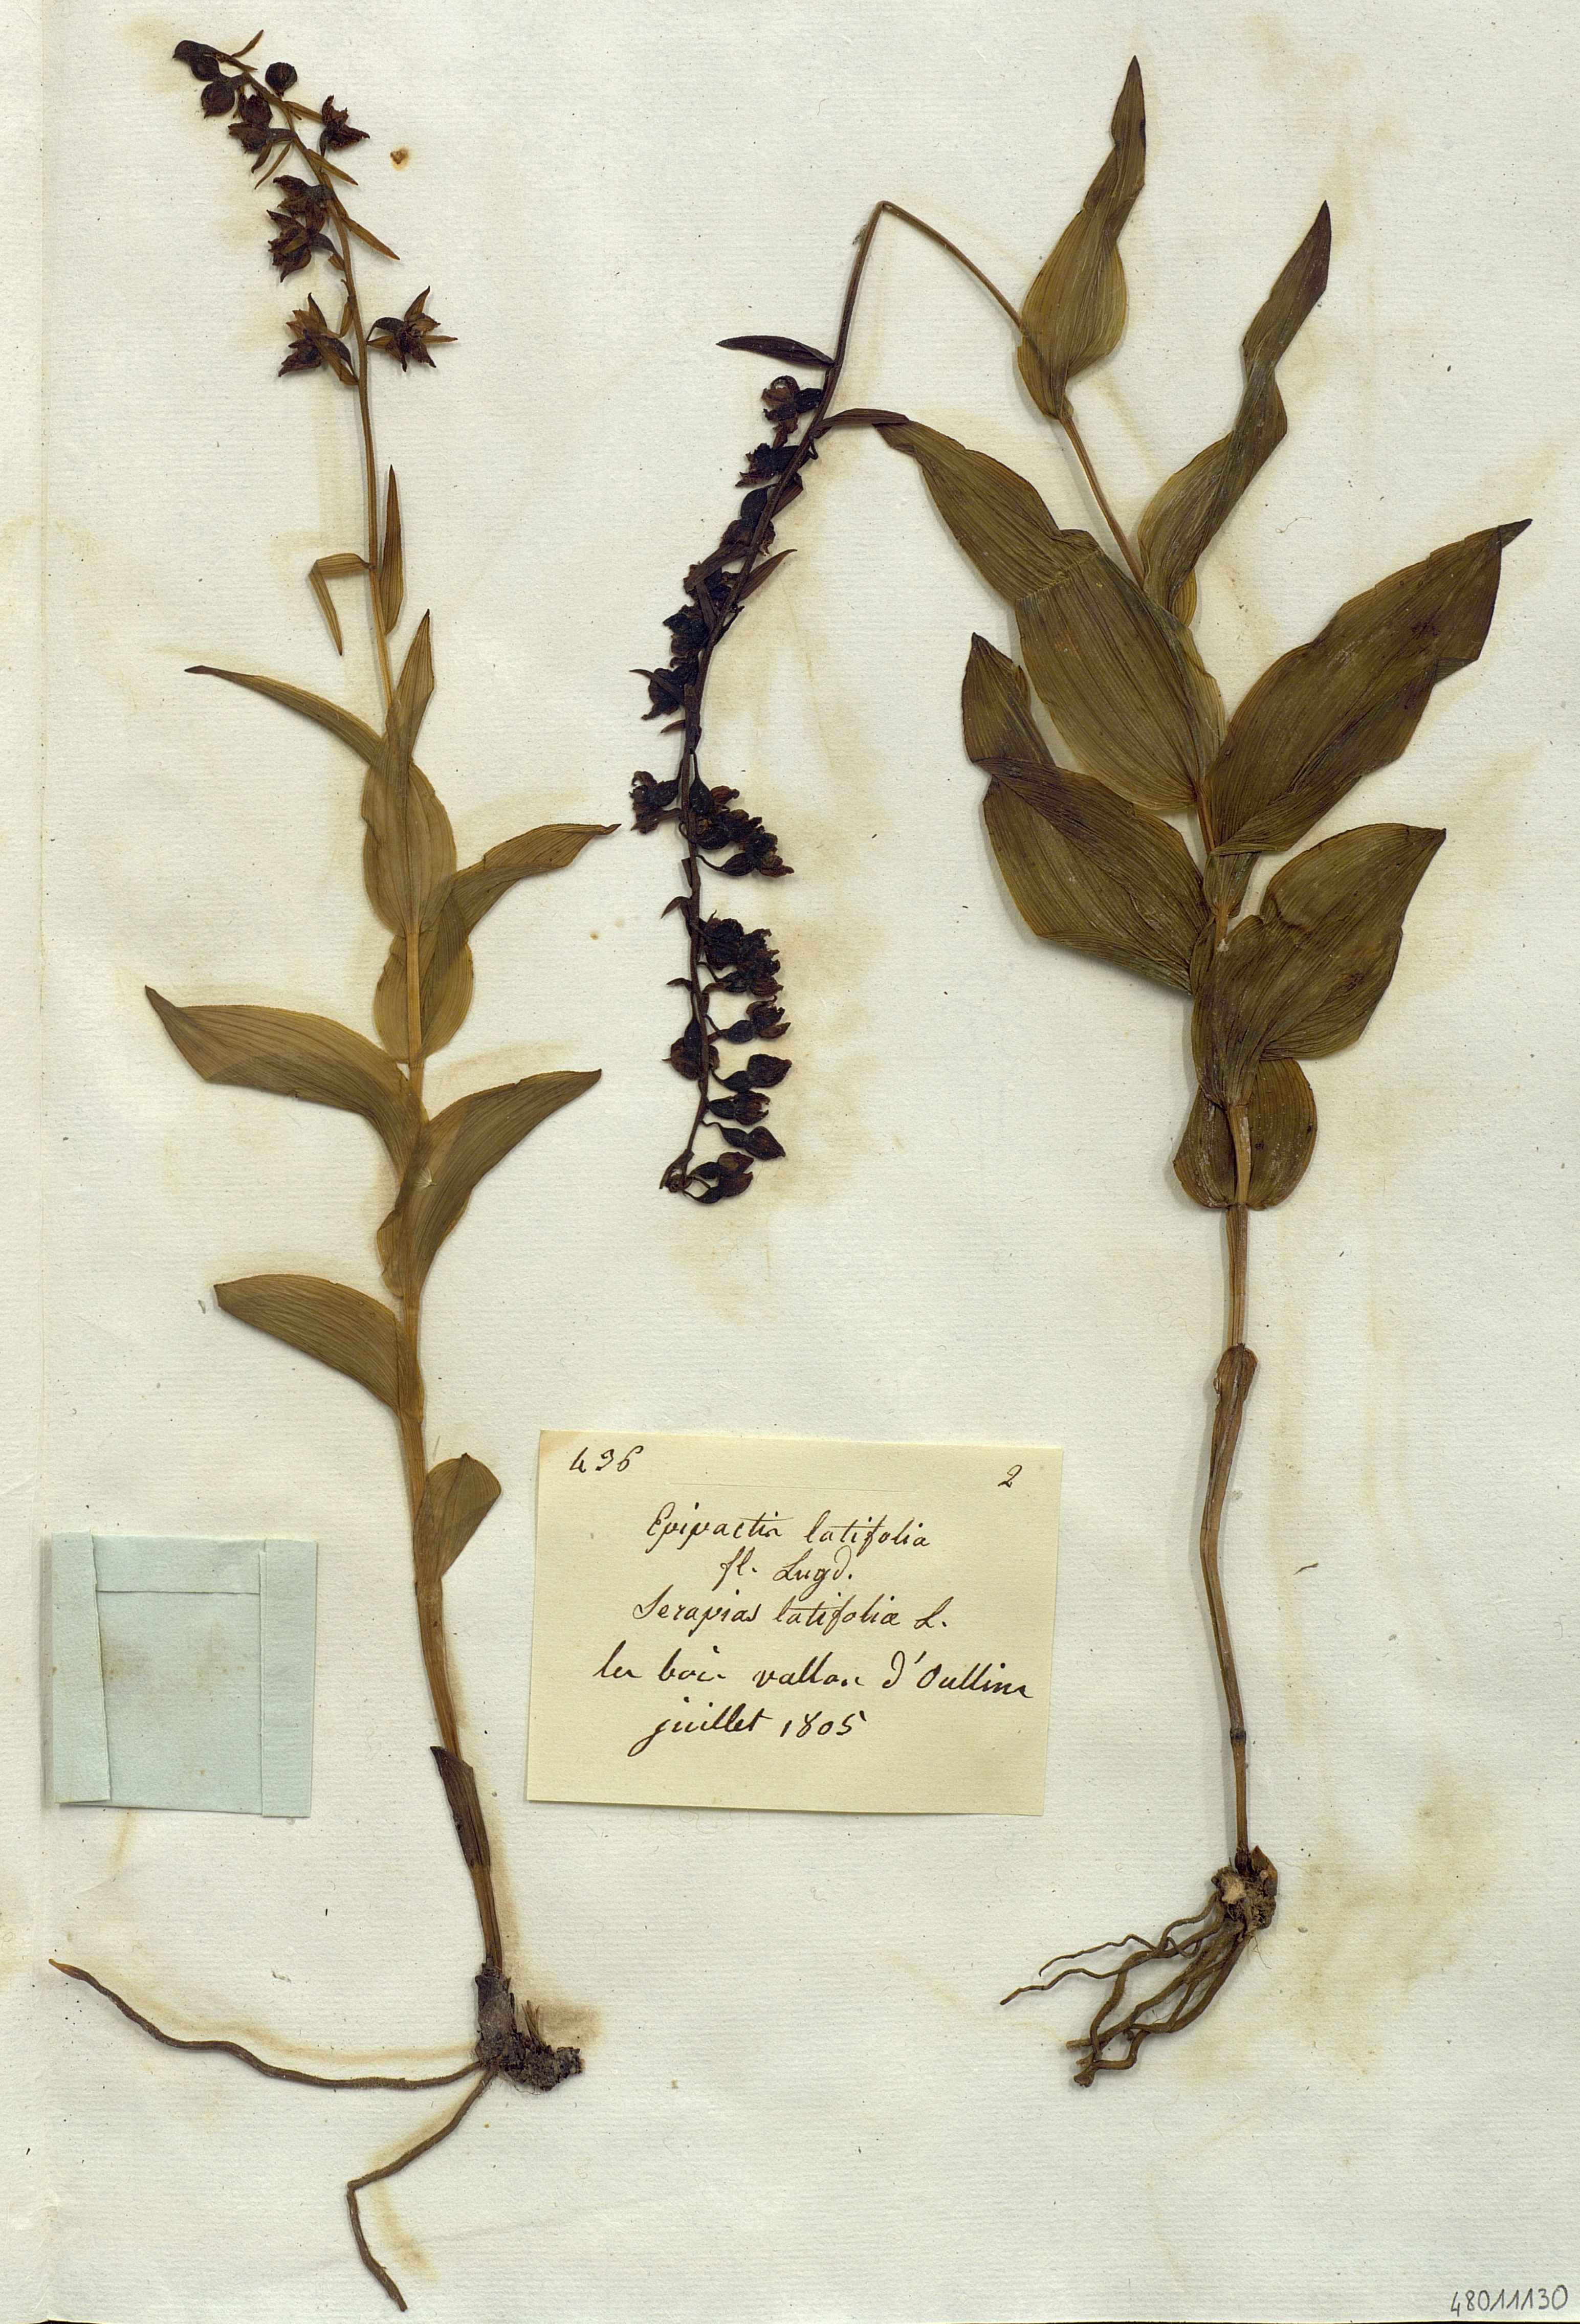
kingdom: Plantae
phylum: Tracheophyta
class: Liliopsida
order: Asparagales
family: Orchidaceae
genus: Epipactis
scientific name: Epipactis
